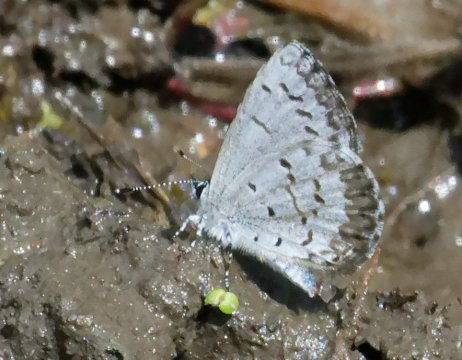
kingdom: Animalia
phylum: Arthropoda
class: Insecta
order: Lepidoptera
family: Lycaenidae
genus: Celastrina
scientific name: Celastrina lucia
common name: Northern Spring Azure
